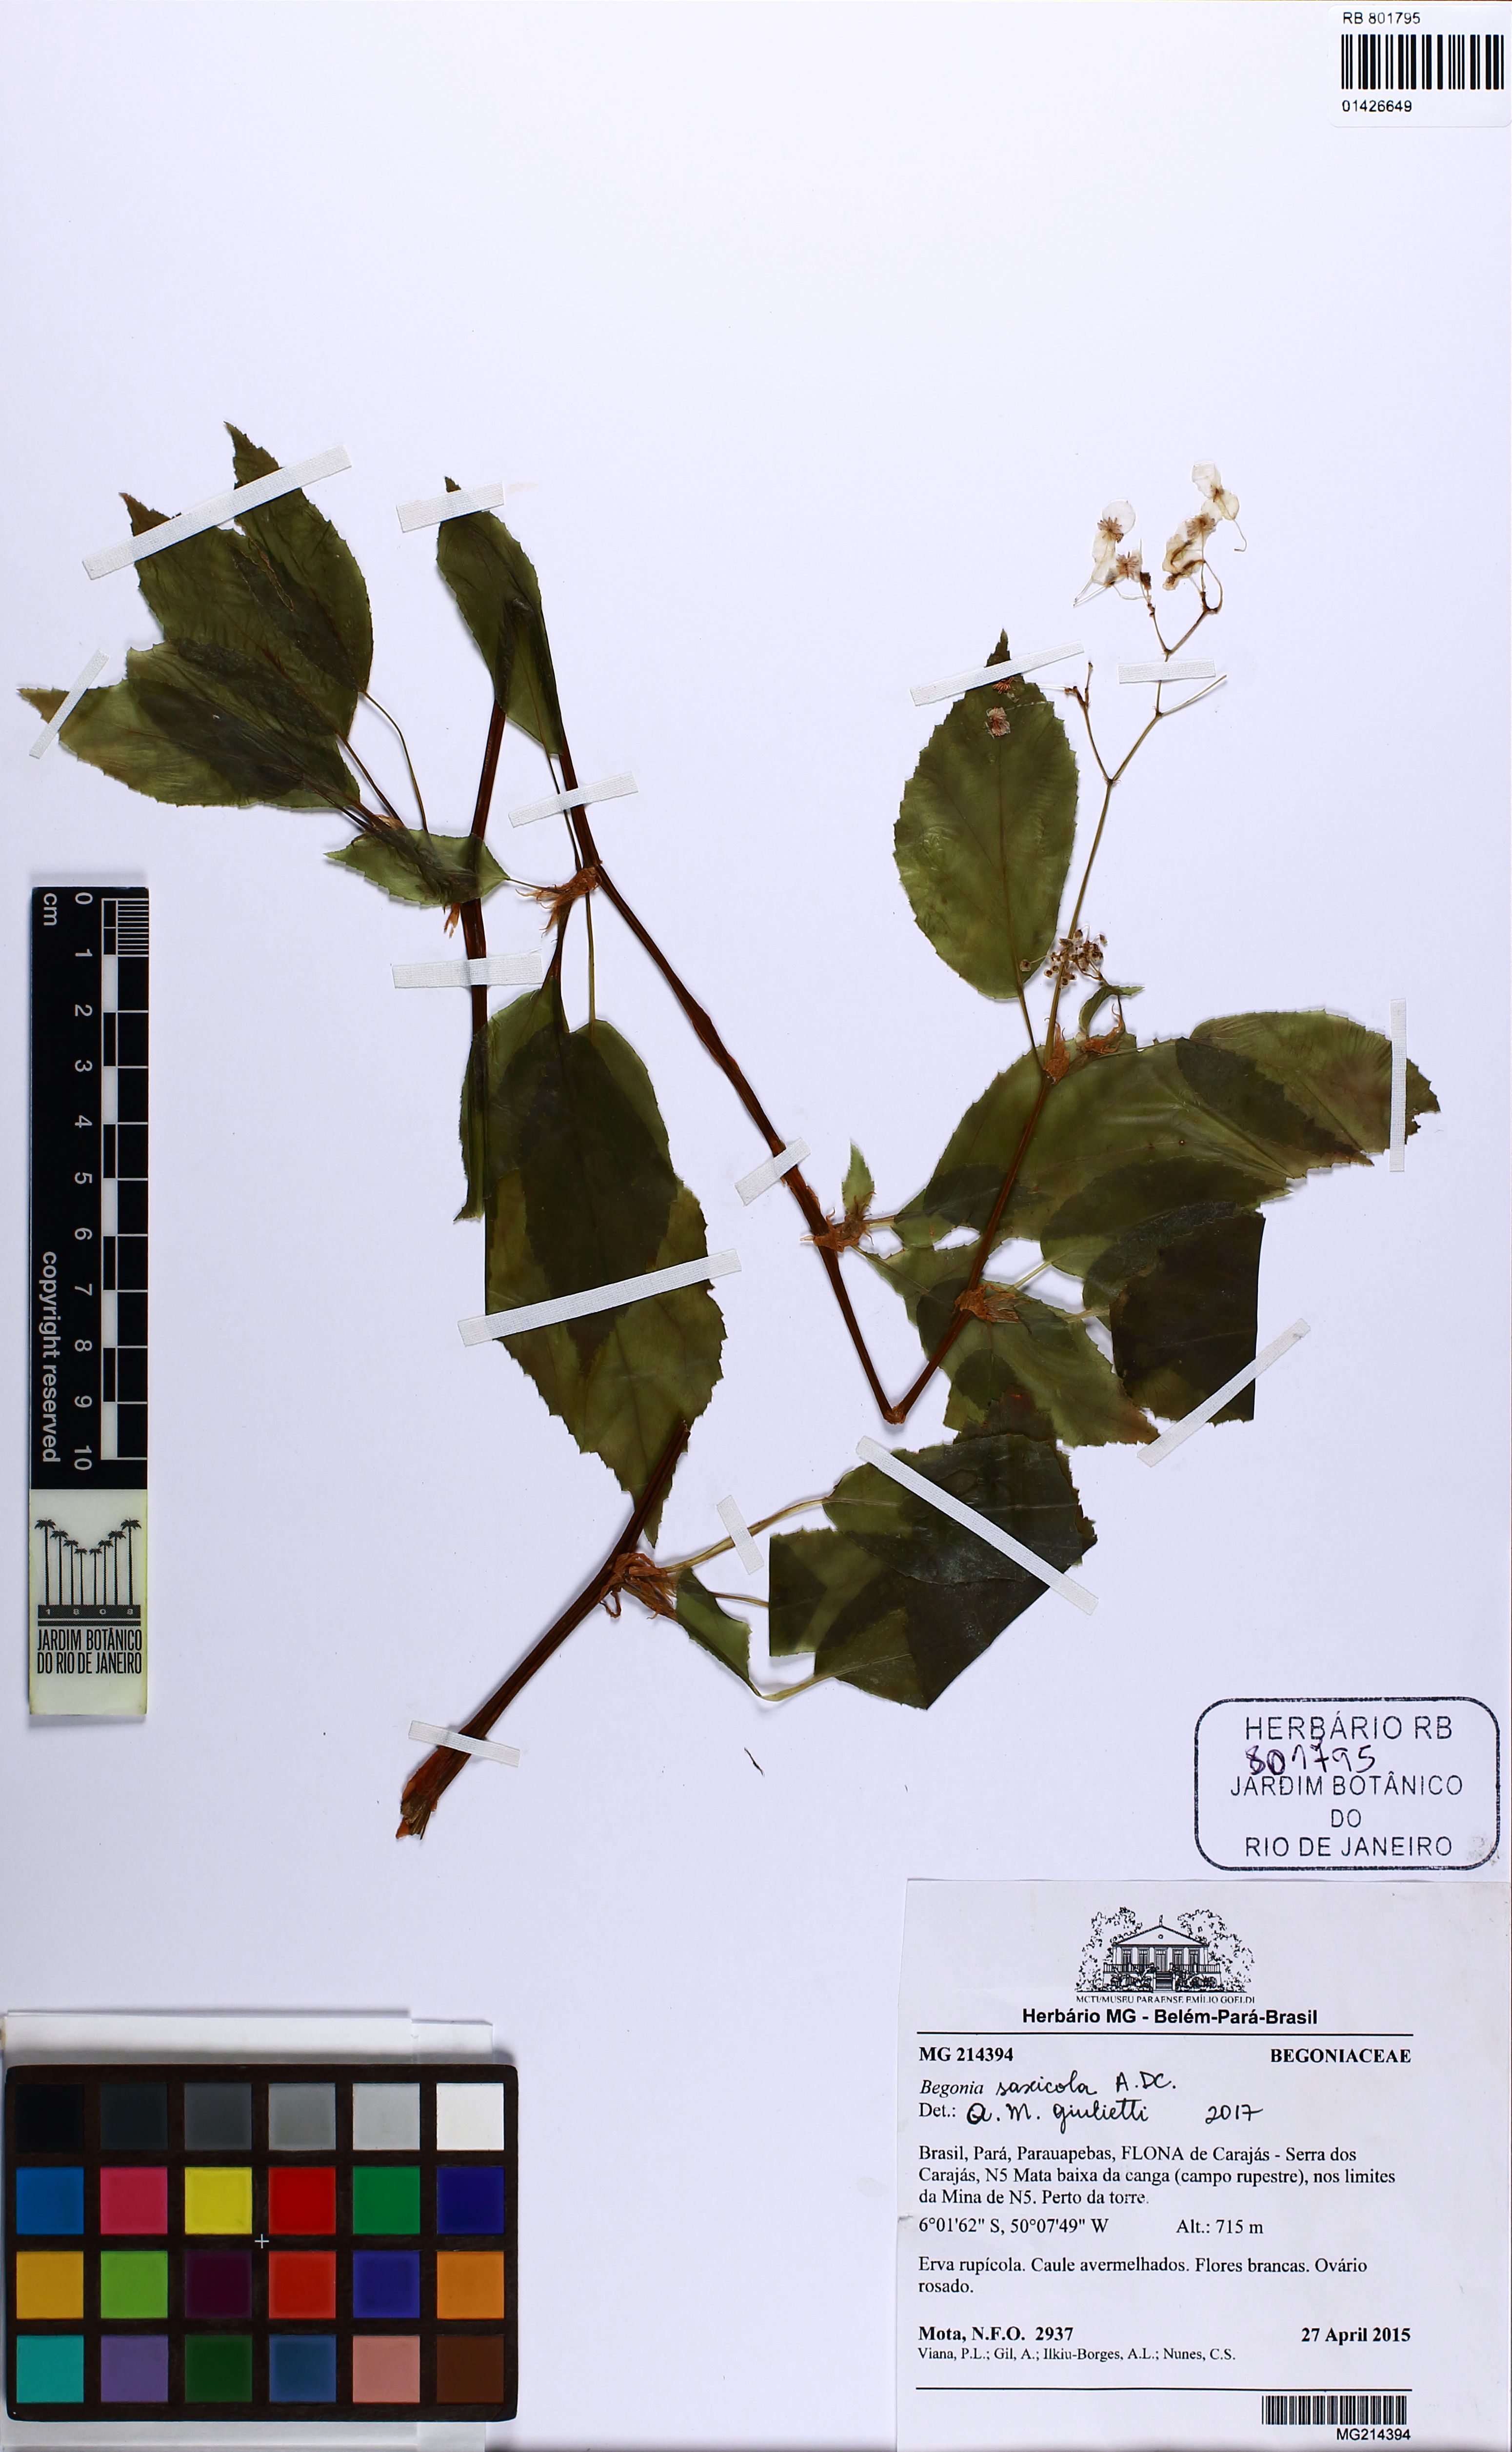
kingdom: Plantae
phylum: Tracheophyta
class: Magnoliopsida
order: Cucurbitales
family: Begoniaceae
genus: Begonia
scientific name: Begonia saxicola
